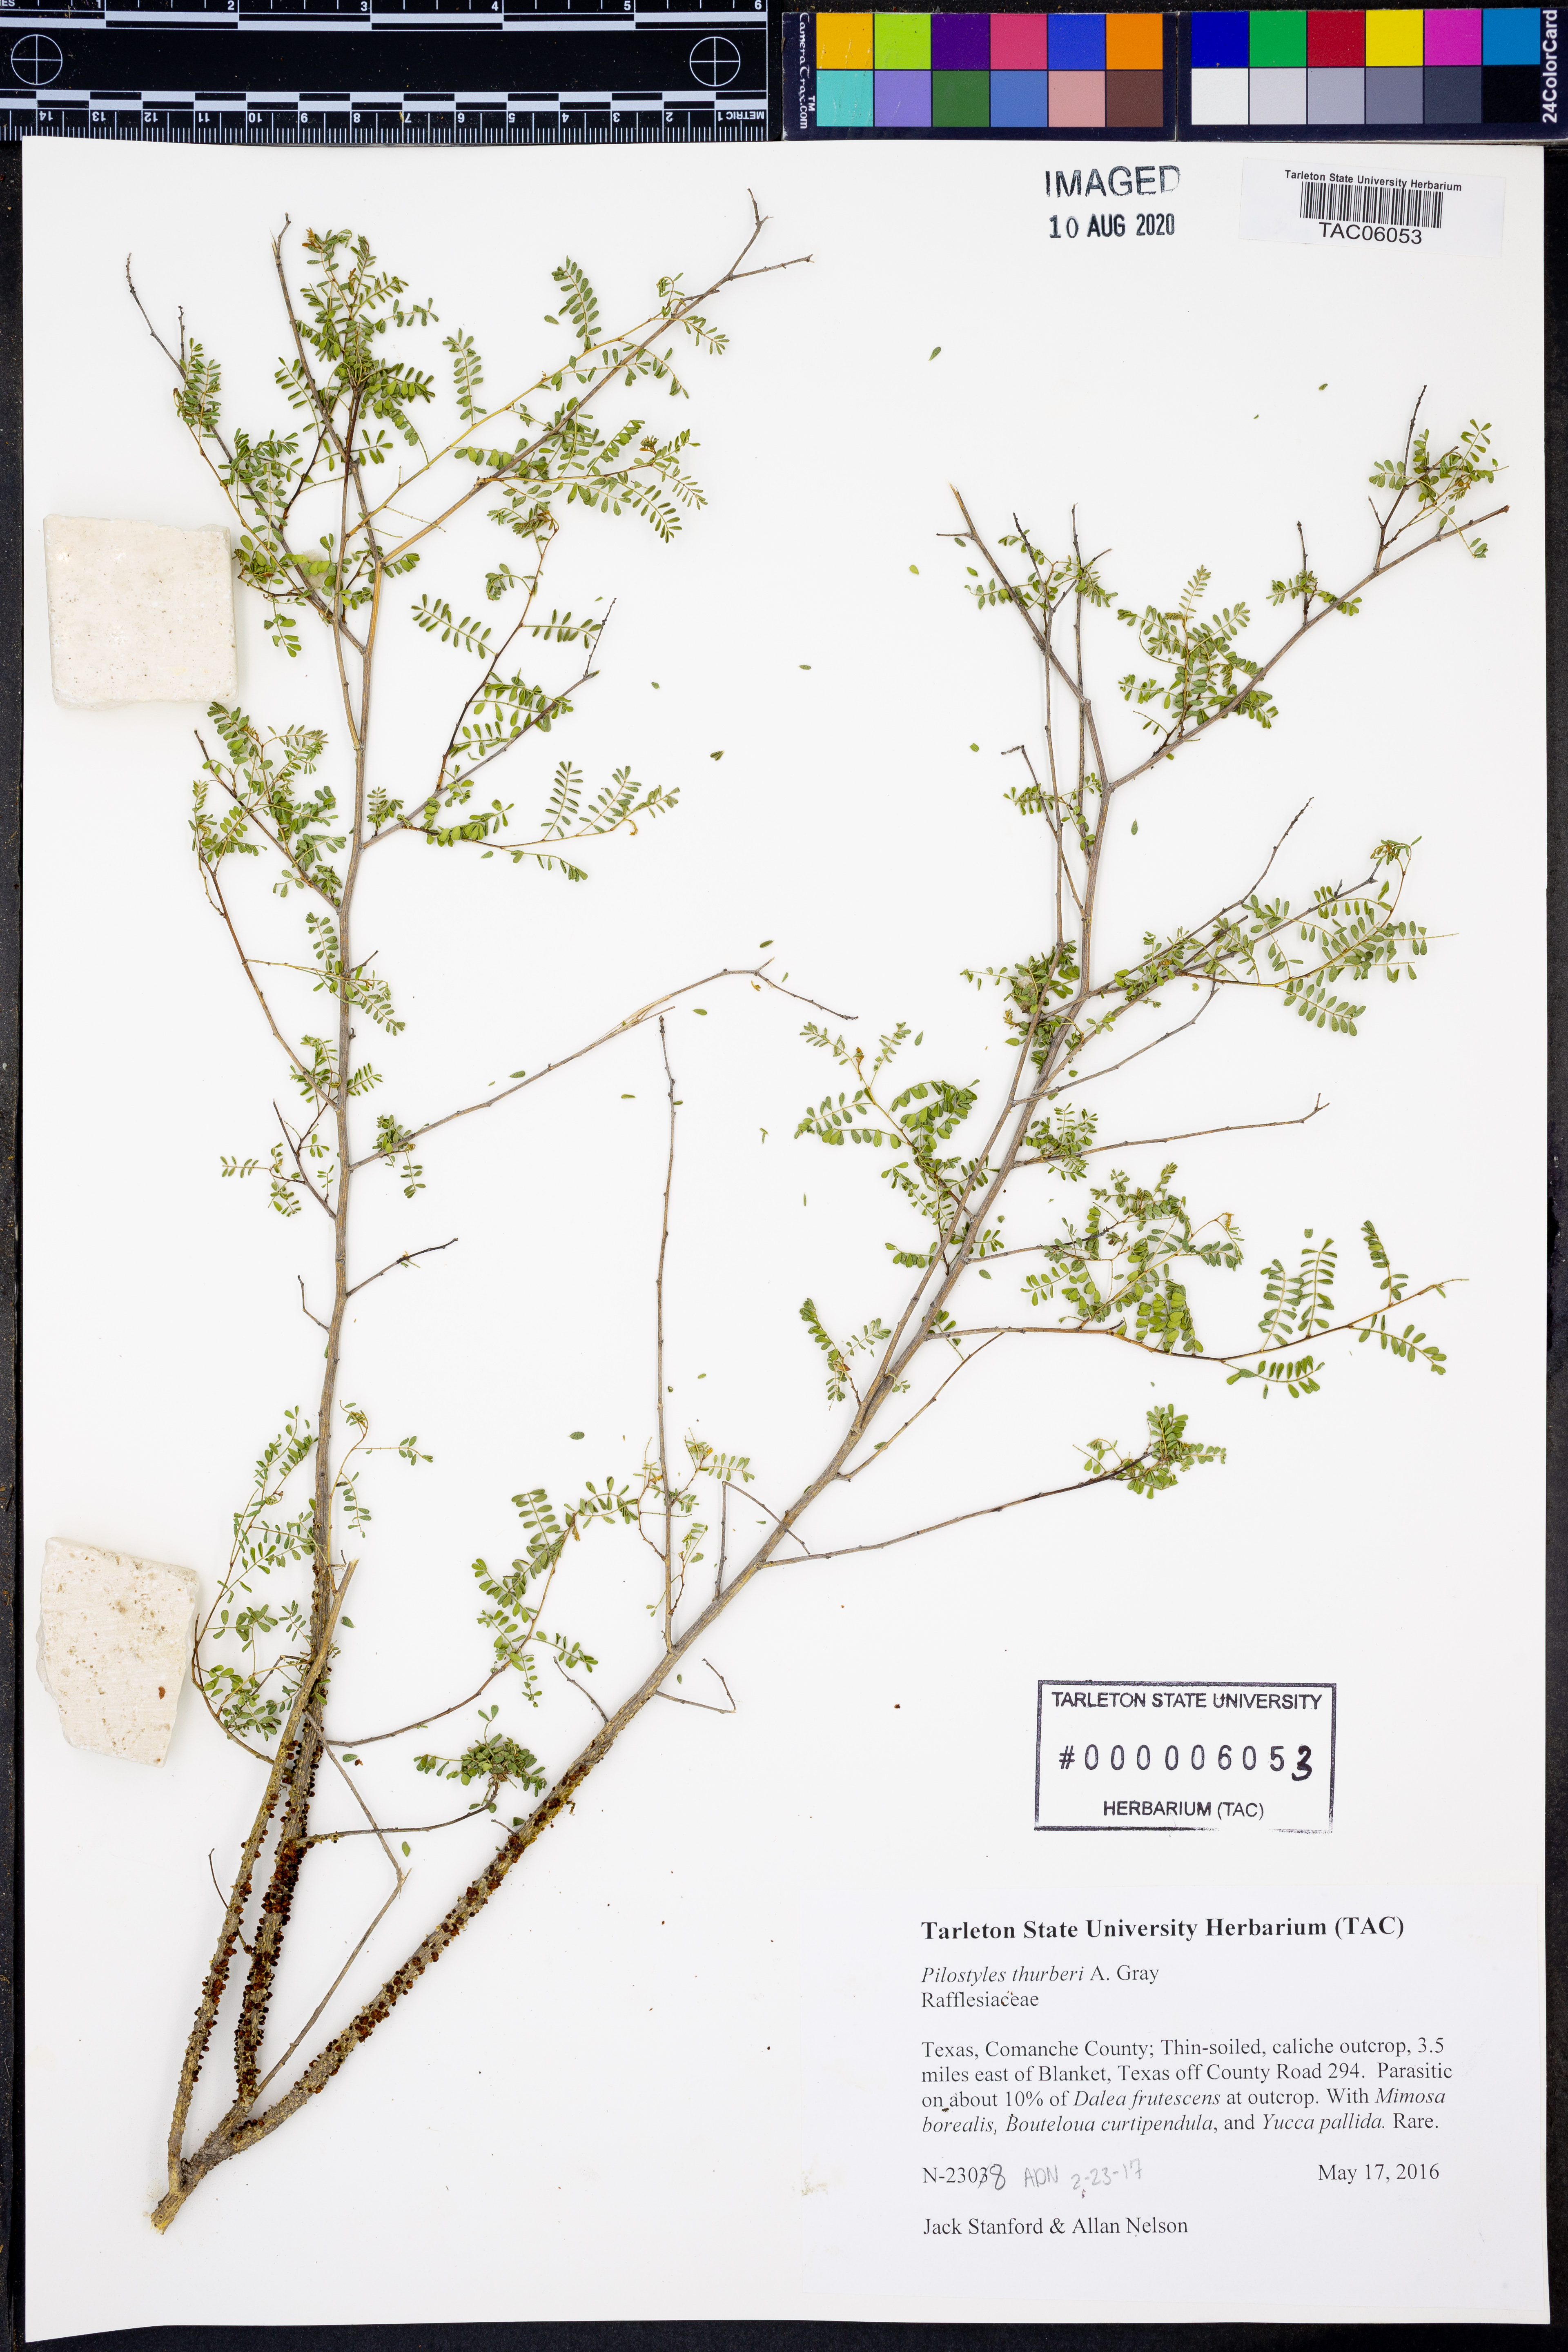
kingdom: Plantae
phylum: Tracheophyta
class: Magnoliopsida
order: Cucurbitales
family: Apodanthaceae
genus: Pilostyles
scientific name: Pilostyles thurberi
